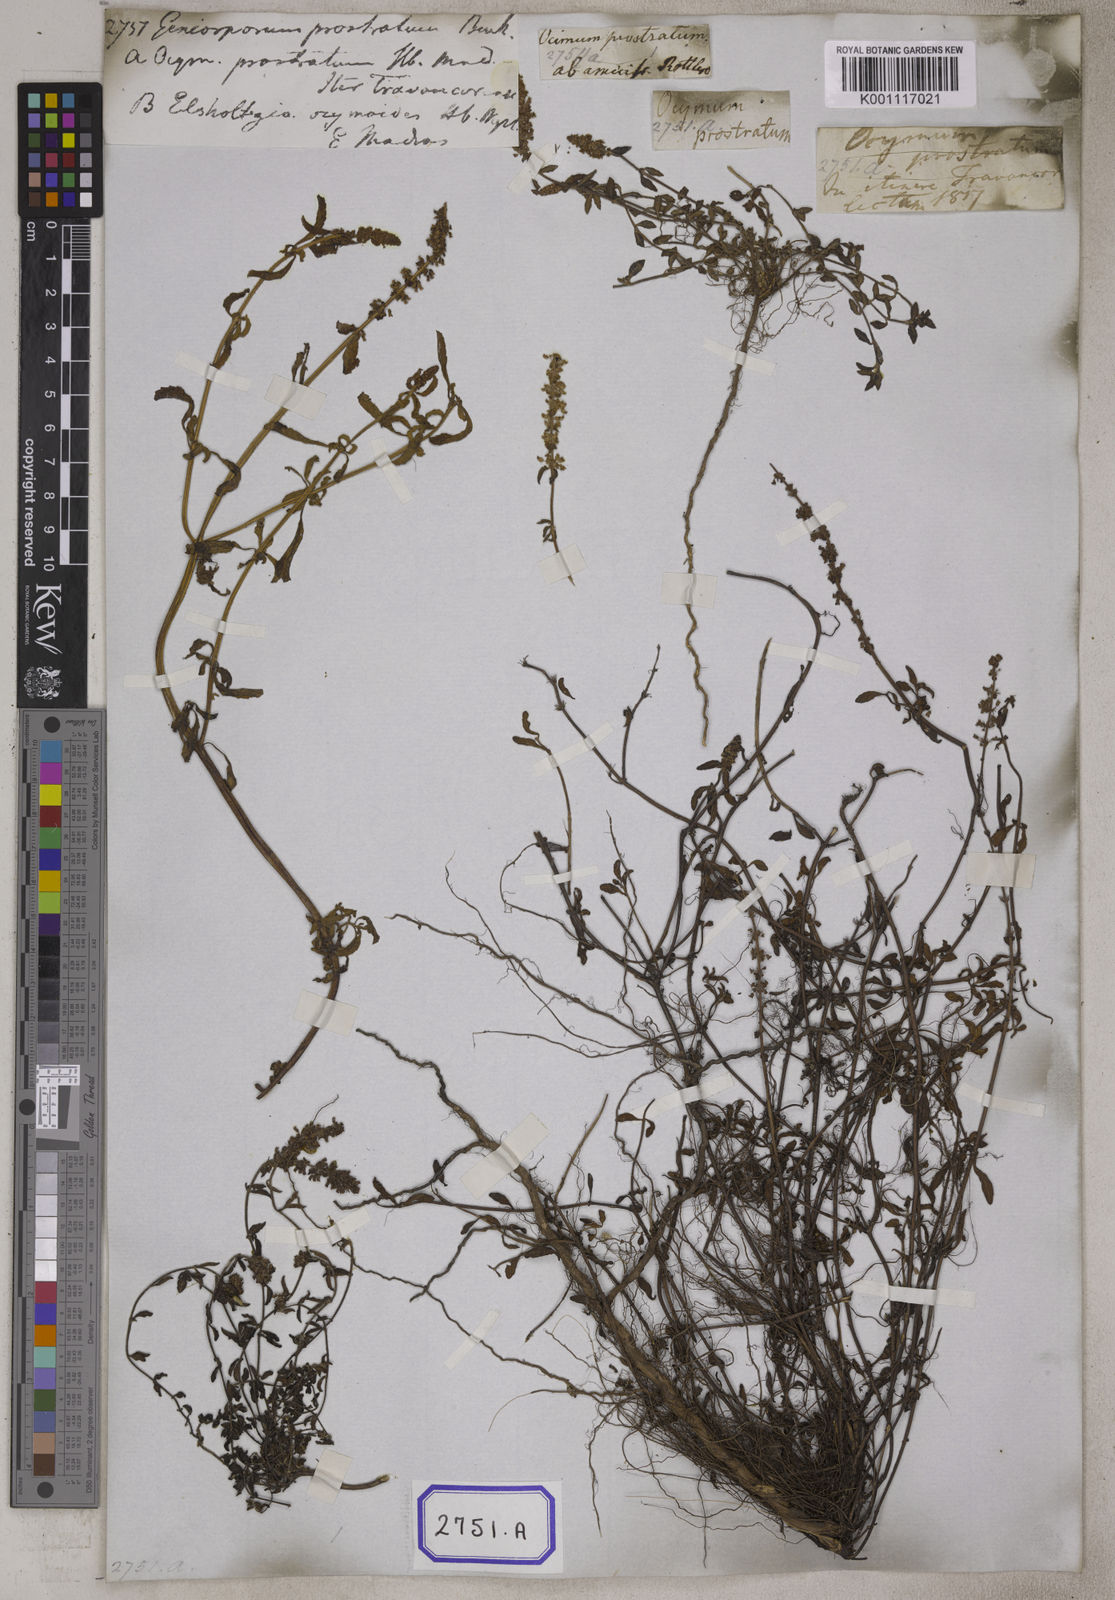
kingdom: Plantae
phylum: Tracheophyta
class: Magnoliopsida
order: Lamiales
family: Lamiaceae
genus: Platostoma
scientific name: Platostoma menthoides
